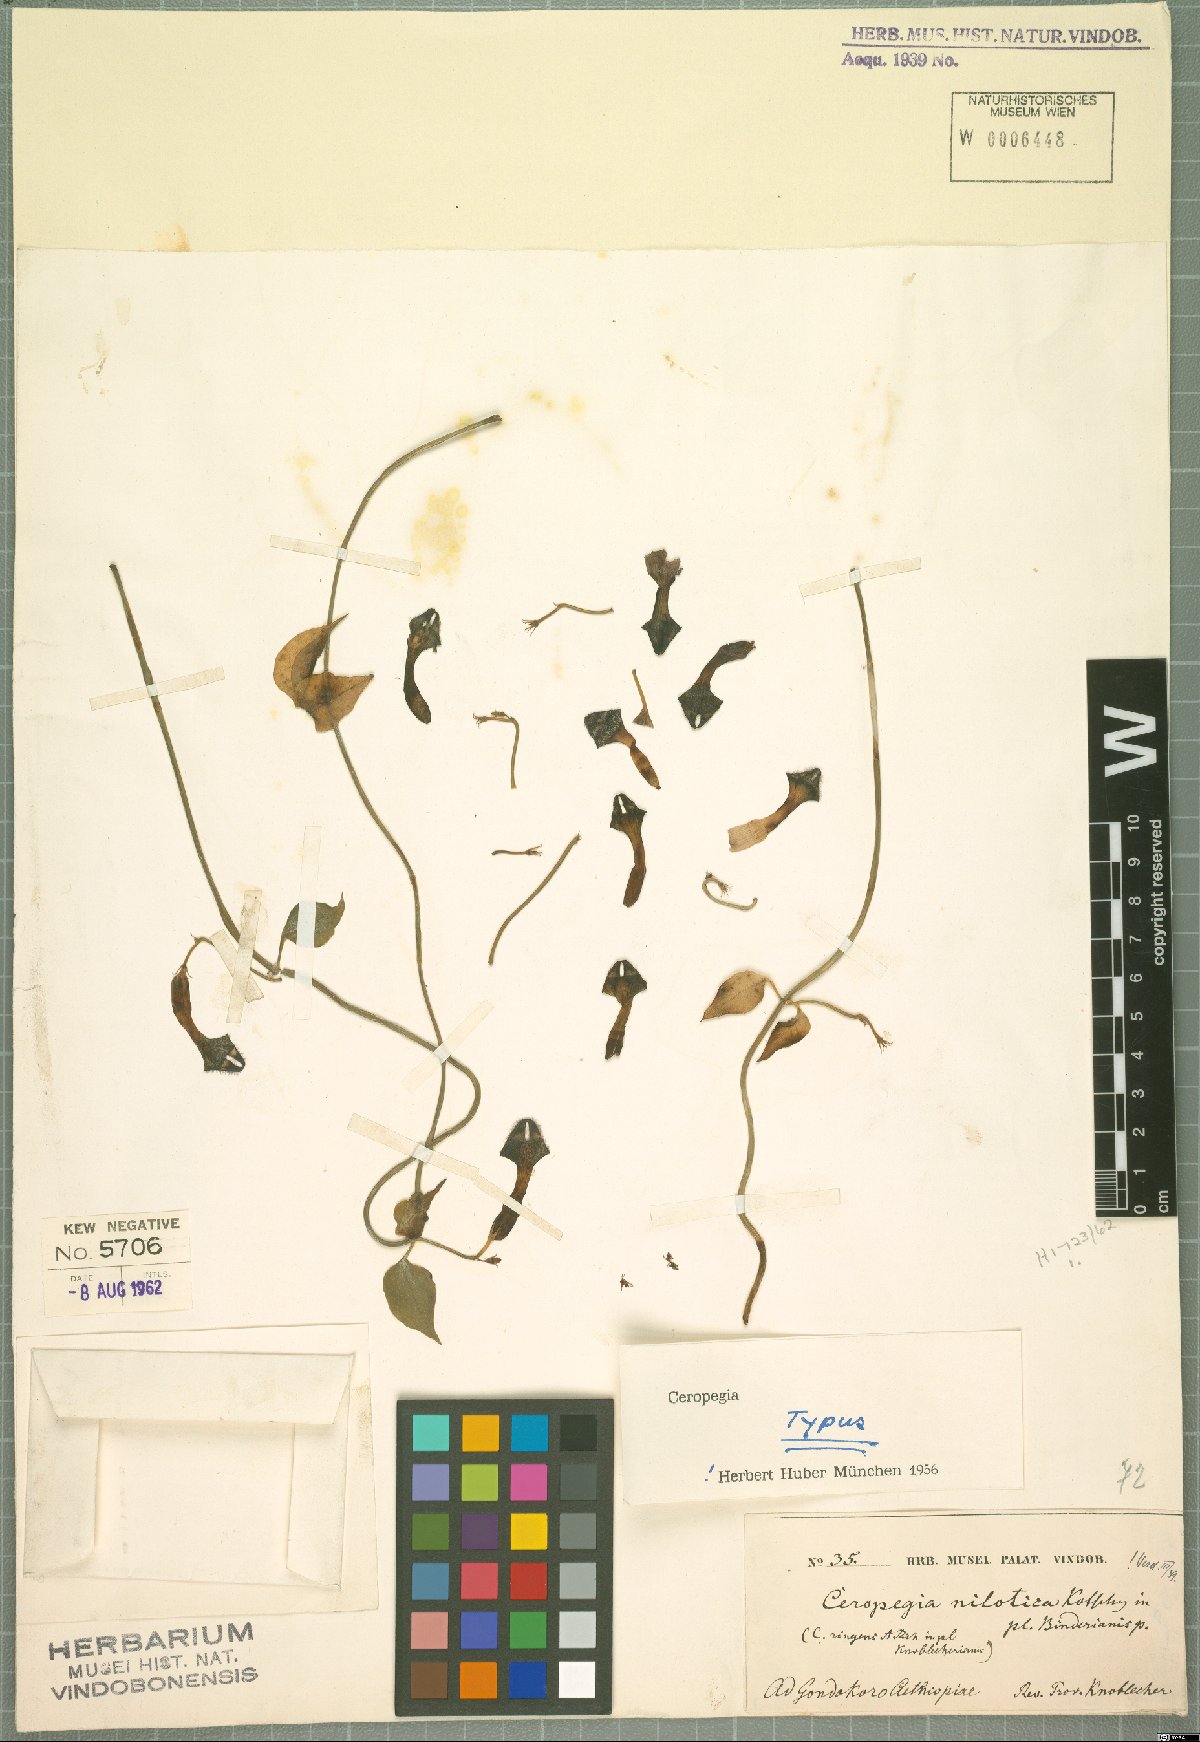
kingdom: Plantae
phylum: Tracheophyta
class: Magnoliopsida
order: Gentianales
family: Apocynaceae
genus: Ceropegia
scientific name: Ceropegia nilotica
